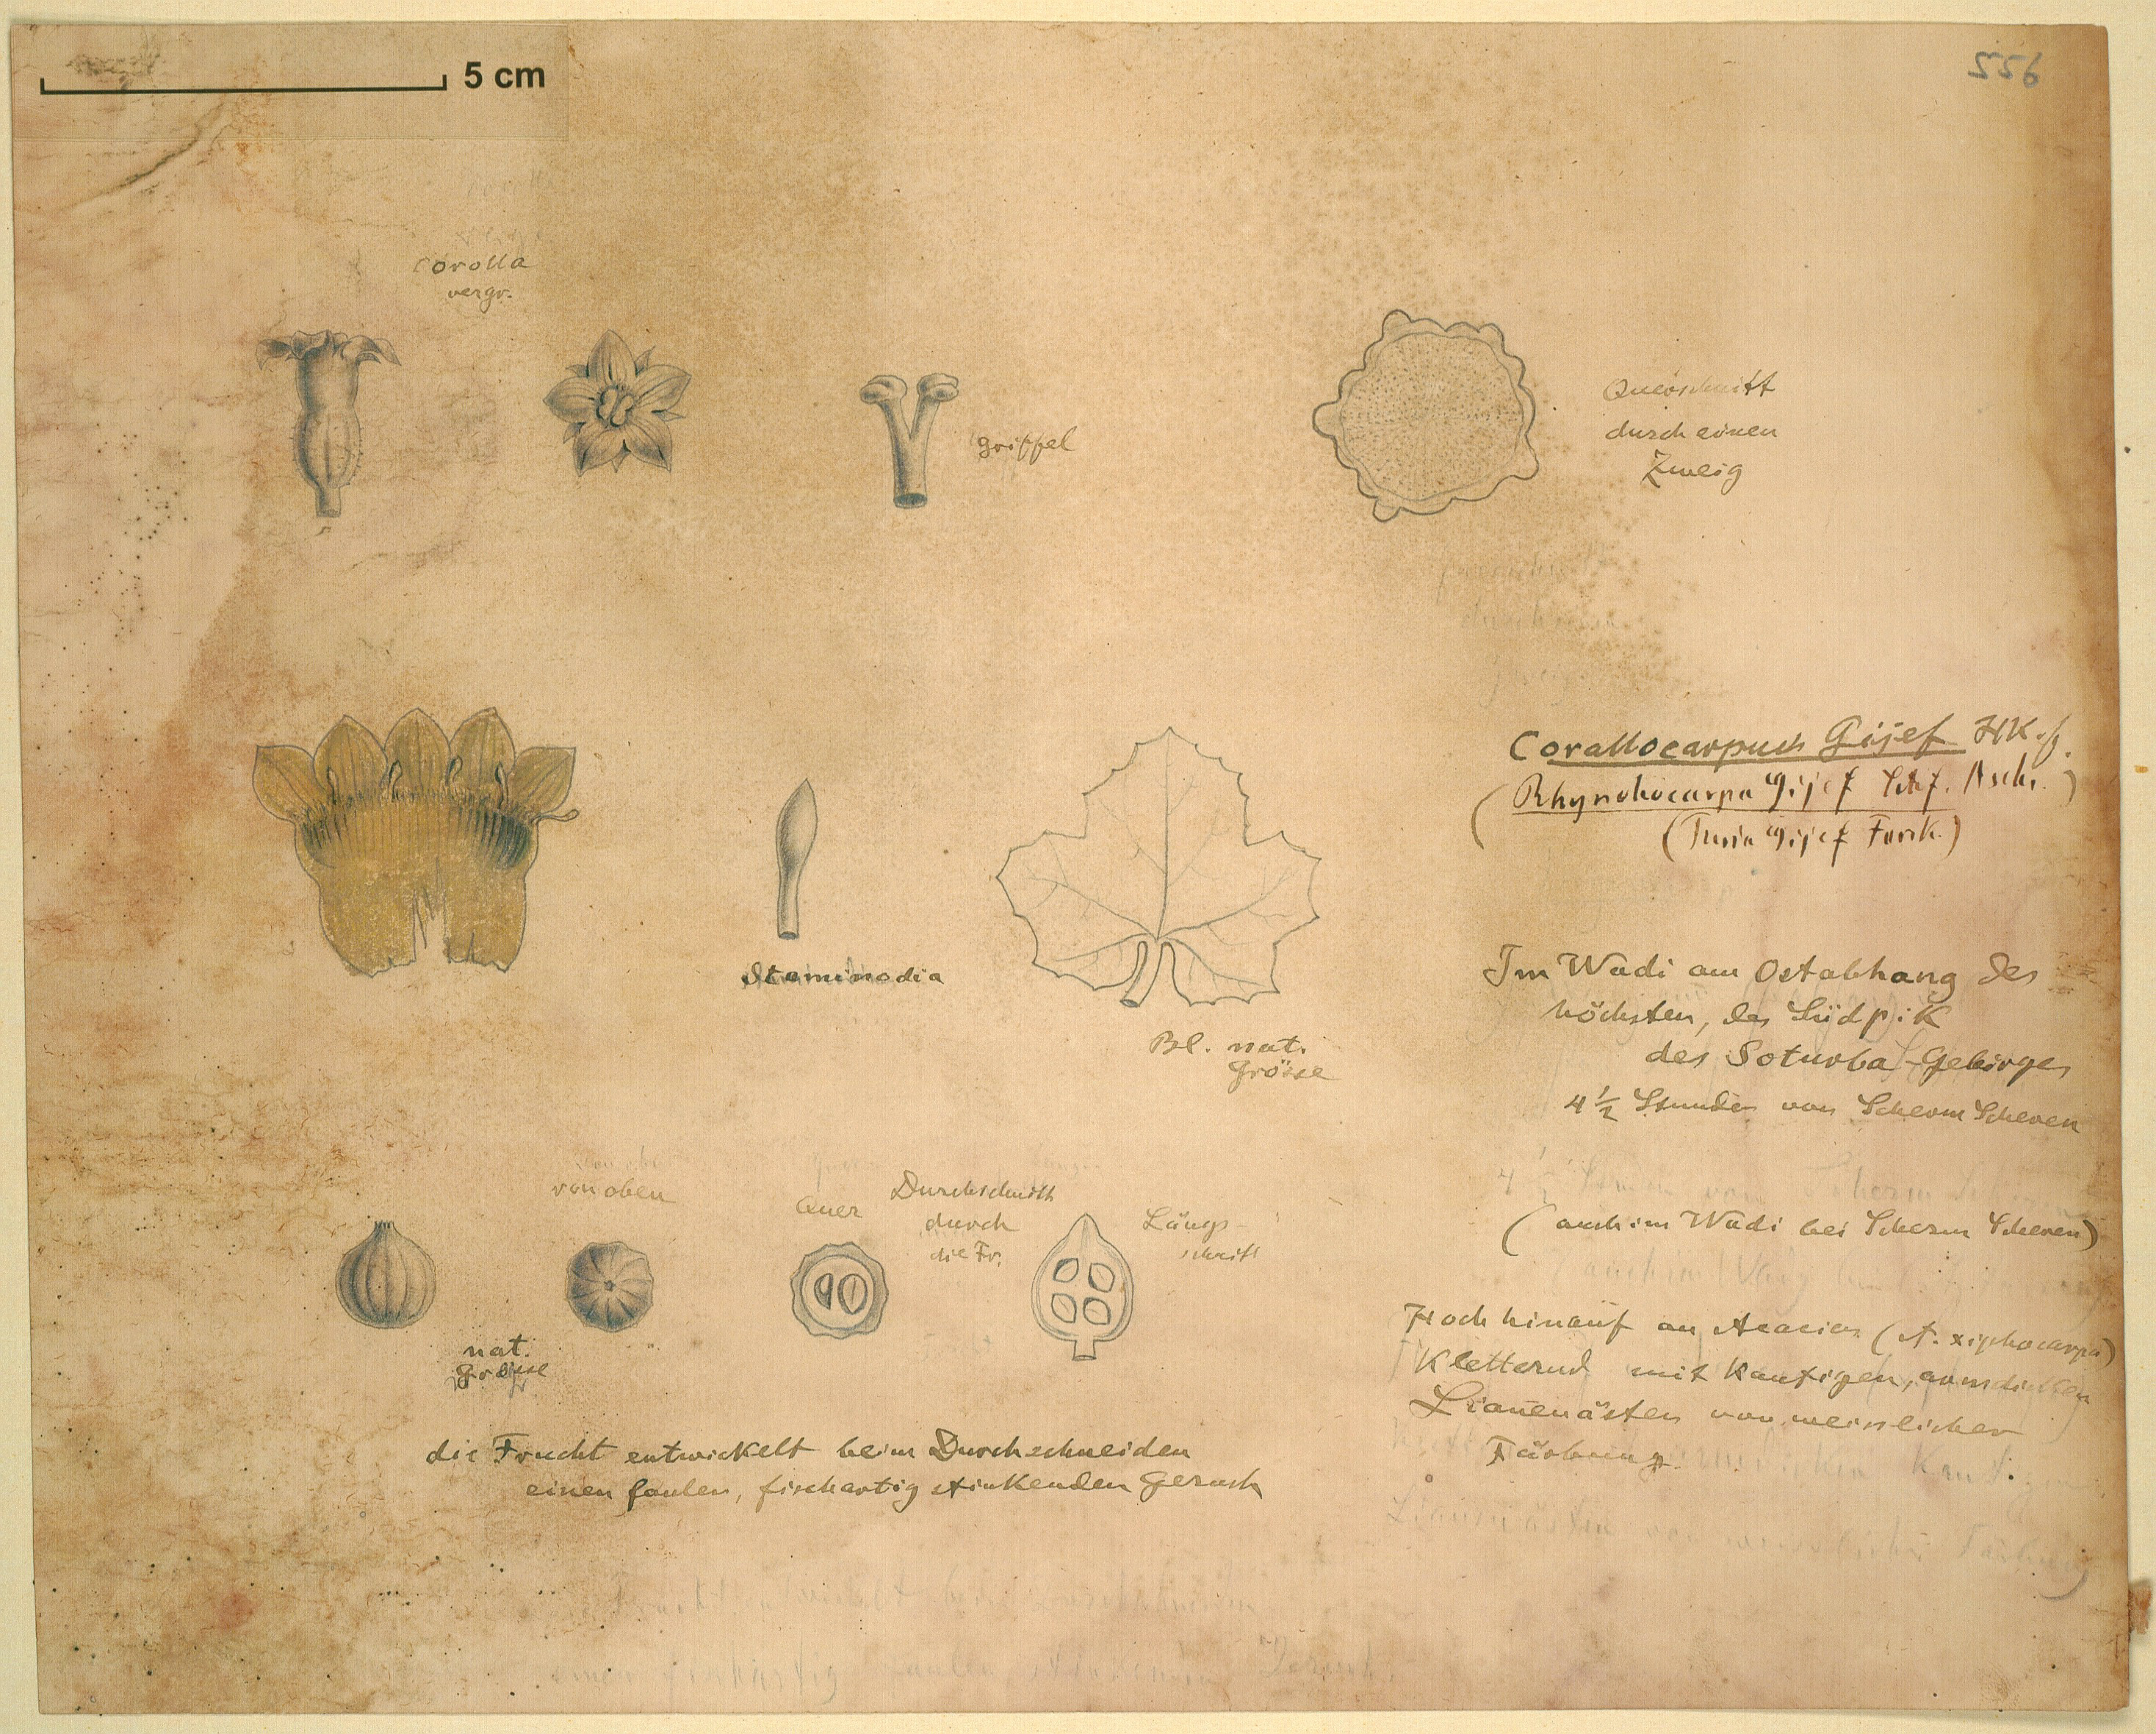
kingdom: Plantae
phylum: Tracheophyta
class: Magnoliopsida
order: Cucurbitales
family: Cucurbitaceae
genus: Kedrostis
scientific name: Kedrostis gijef
